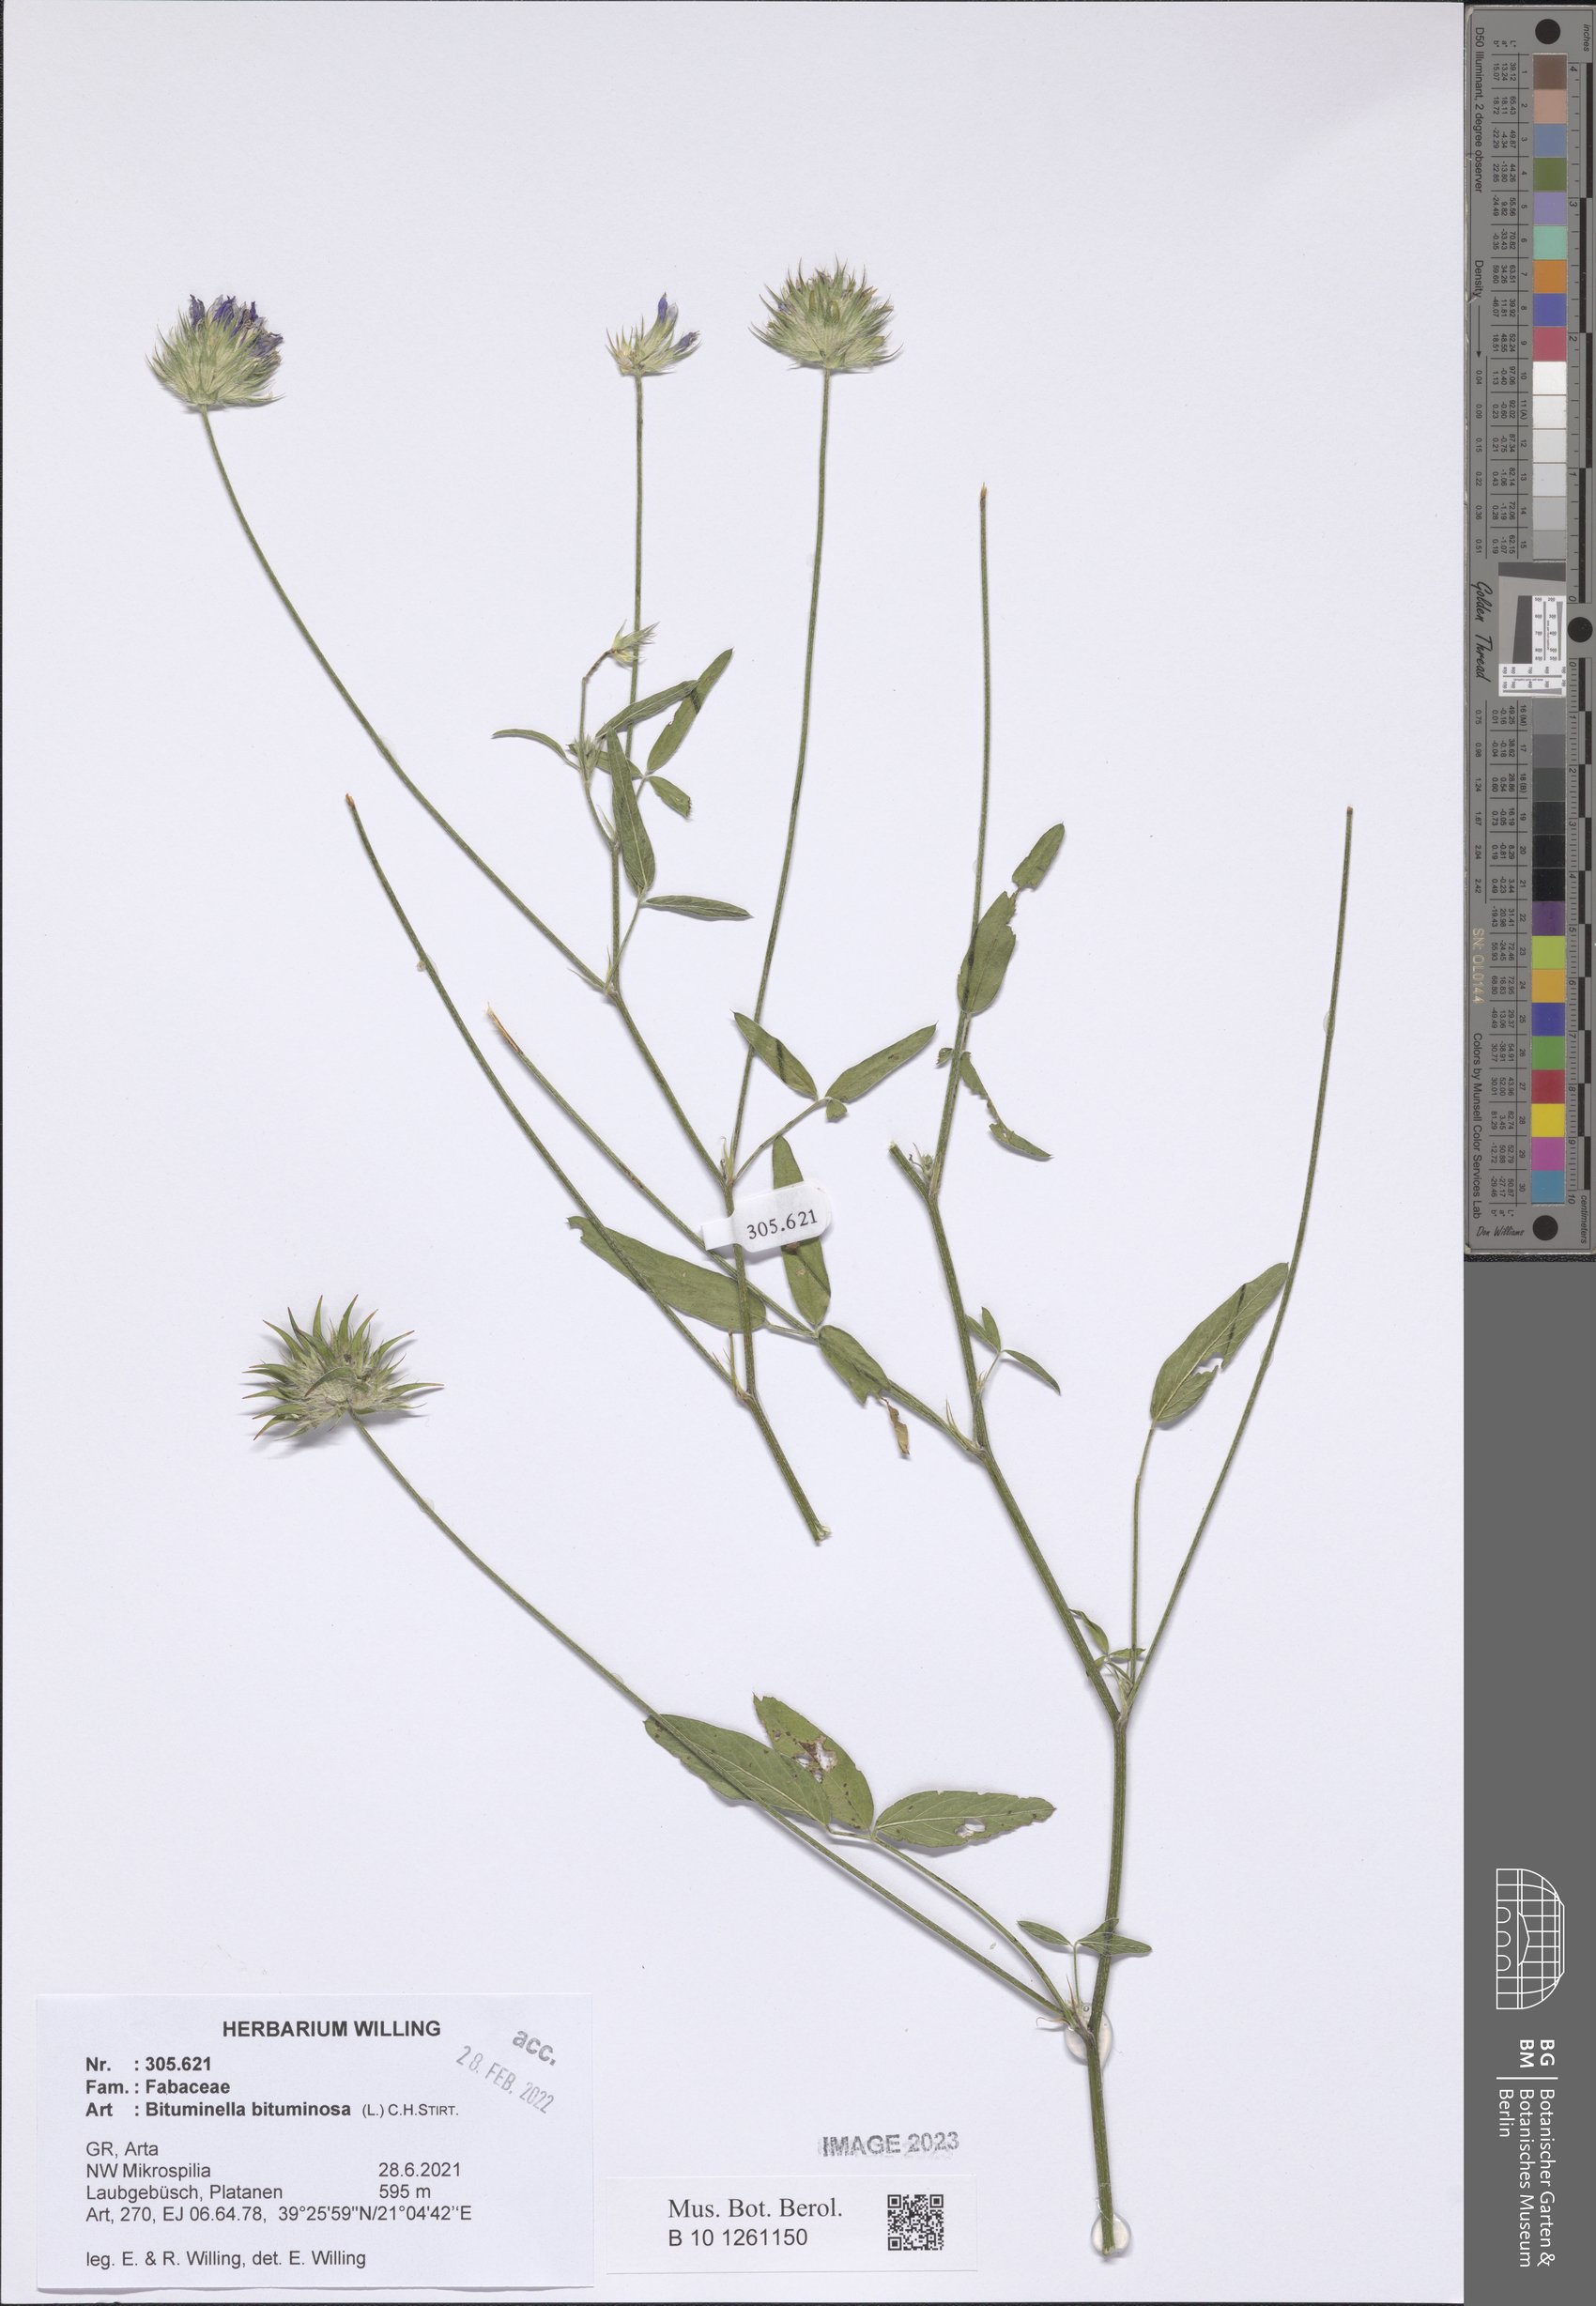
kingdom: Plantae
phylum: Tracheophyta
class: Magnoliopsida
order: Fabales
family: Fabaceae
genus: Bituminaria
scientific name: Bituminaria bituminosa
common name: Arabian pea
